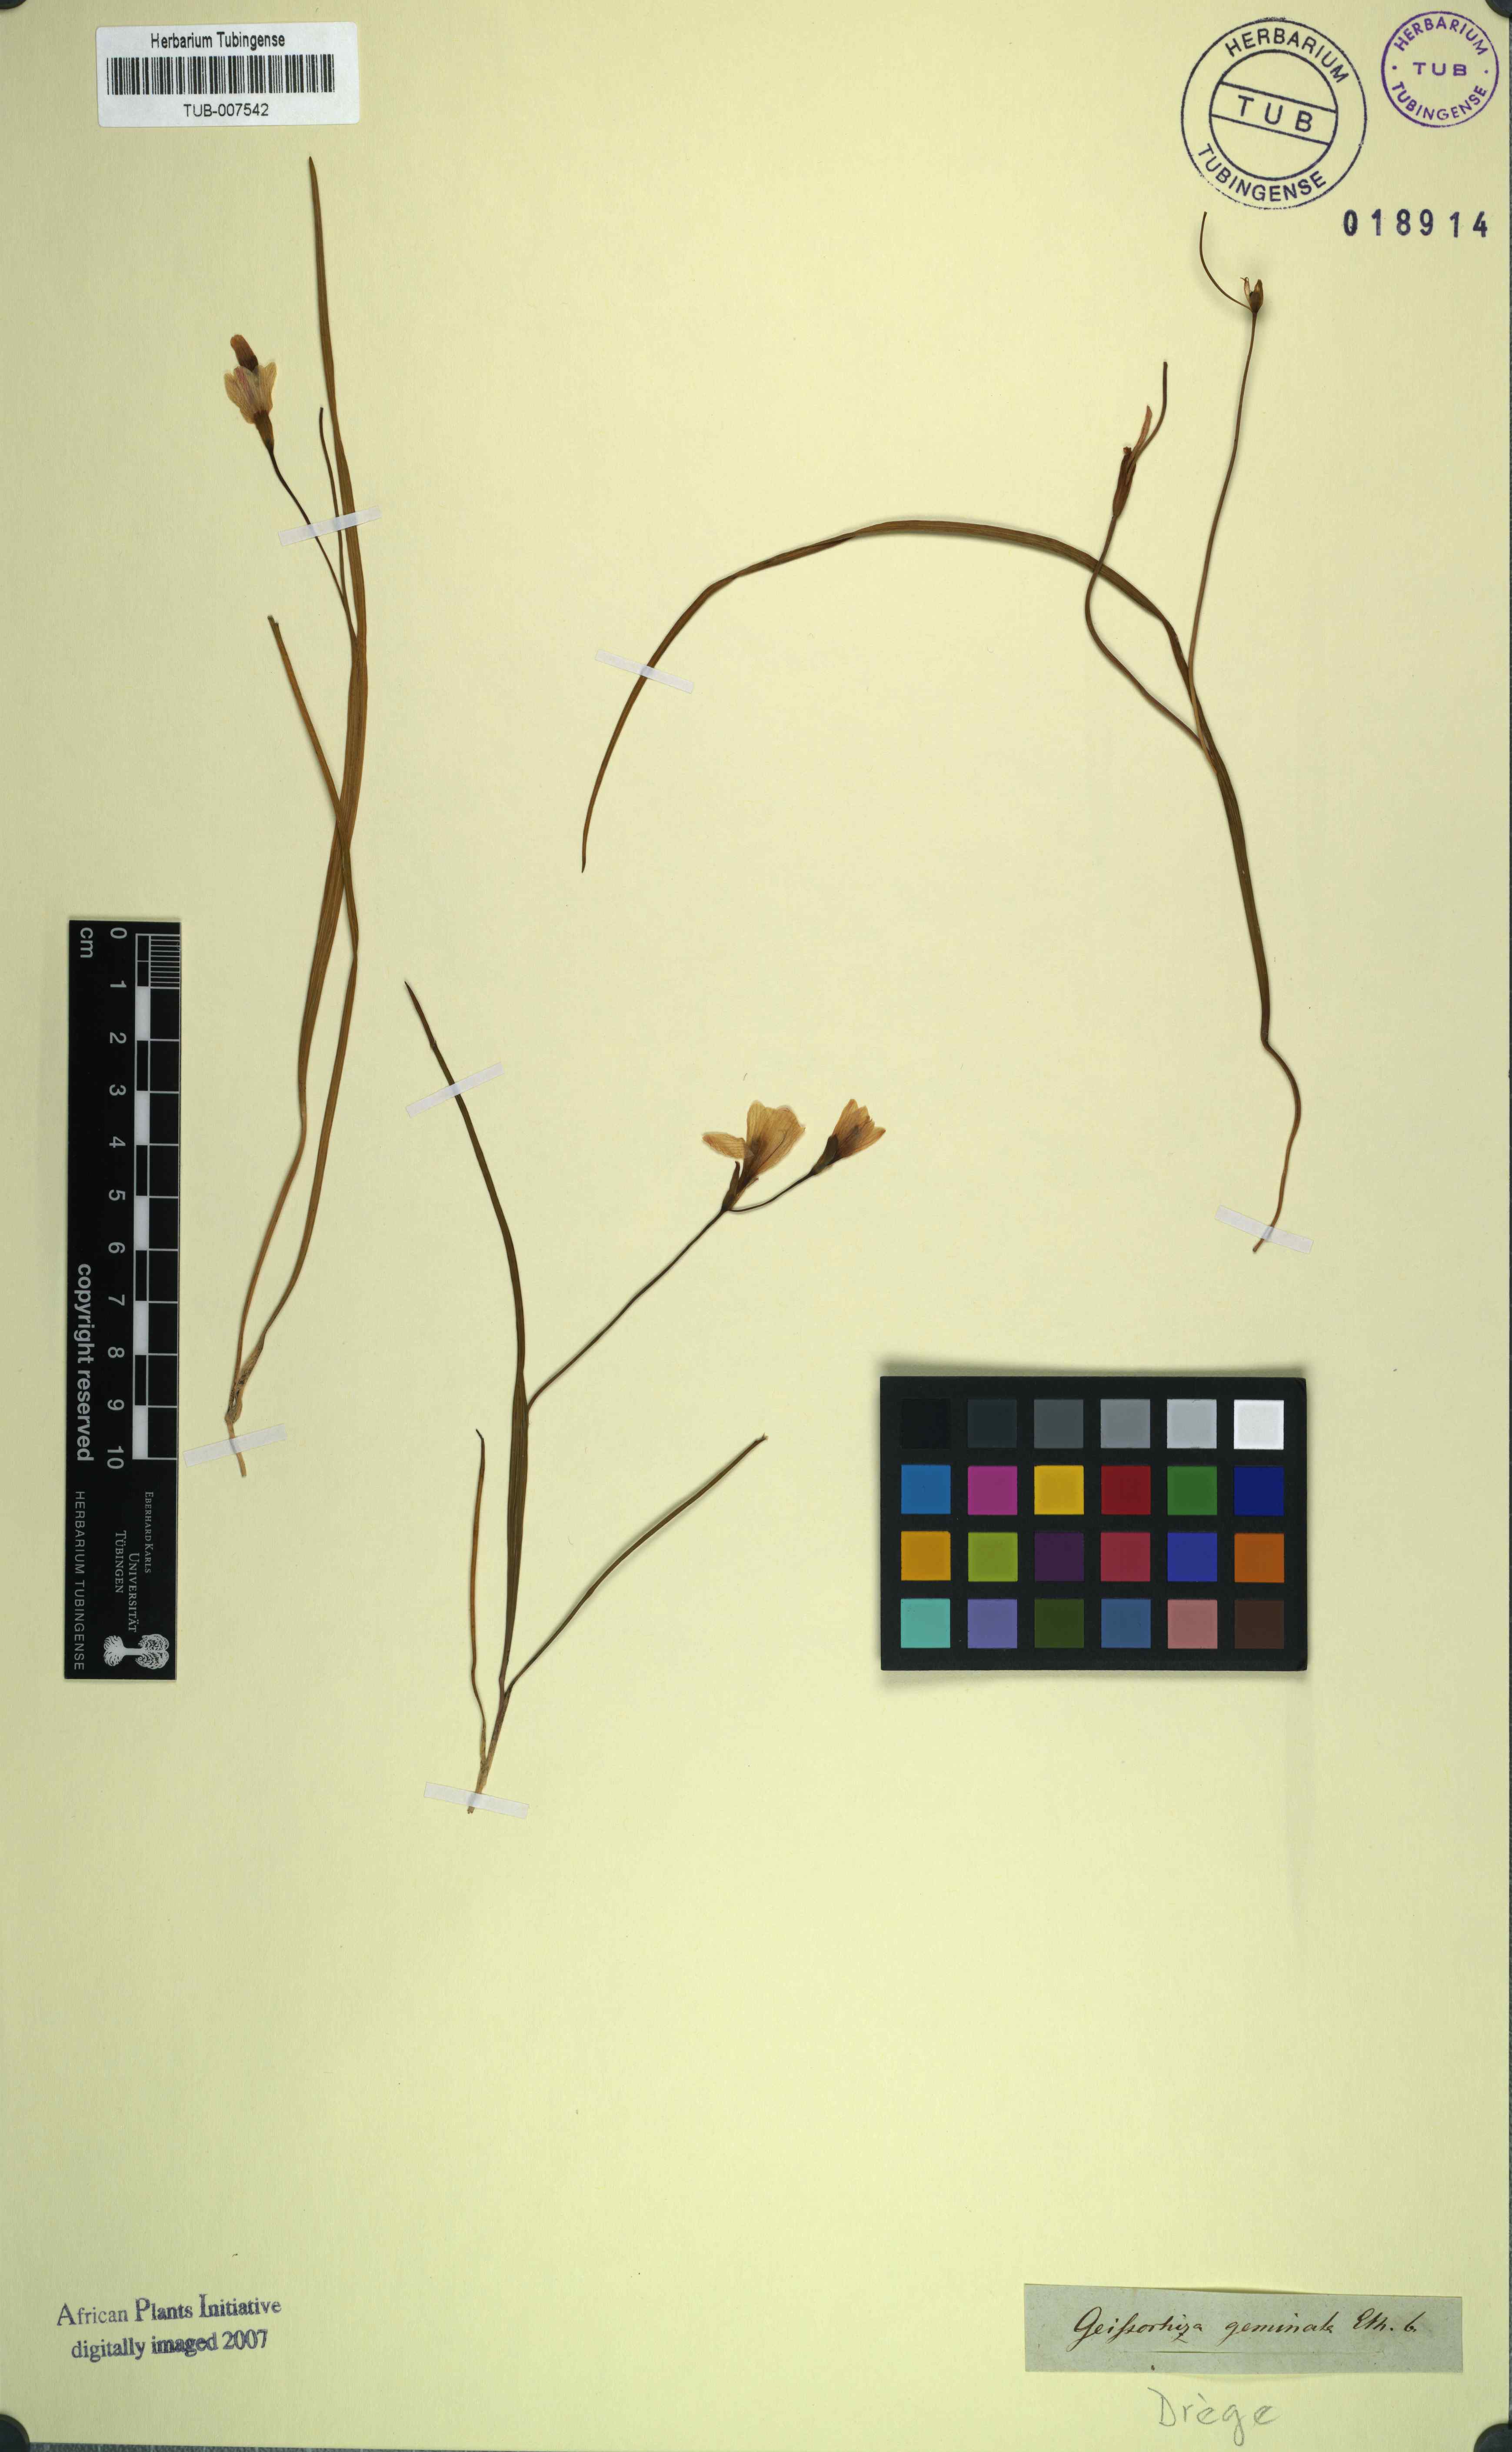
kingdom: Plantae
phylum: Tracheophyta
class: Liliopsida
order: Asparagales
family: Iridaceae
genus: Geissorhiza
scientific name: Geissorhiza geminata
